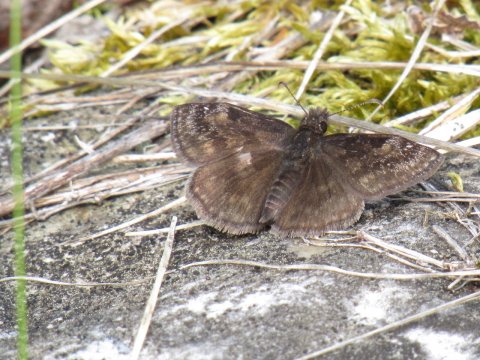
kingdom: Animalia
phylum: Arthropoda
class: Insecta
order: Lepidoptera
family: Hesperiidae
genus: Gesta
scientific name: Gesta
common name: Wild Indigo Duskywing
